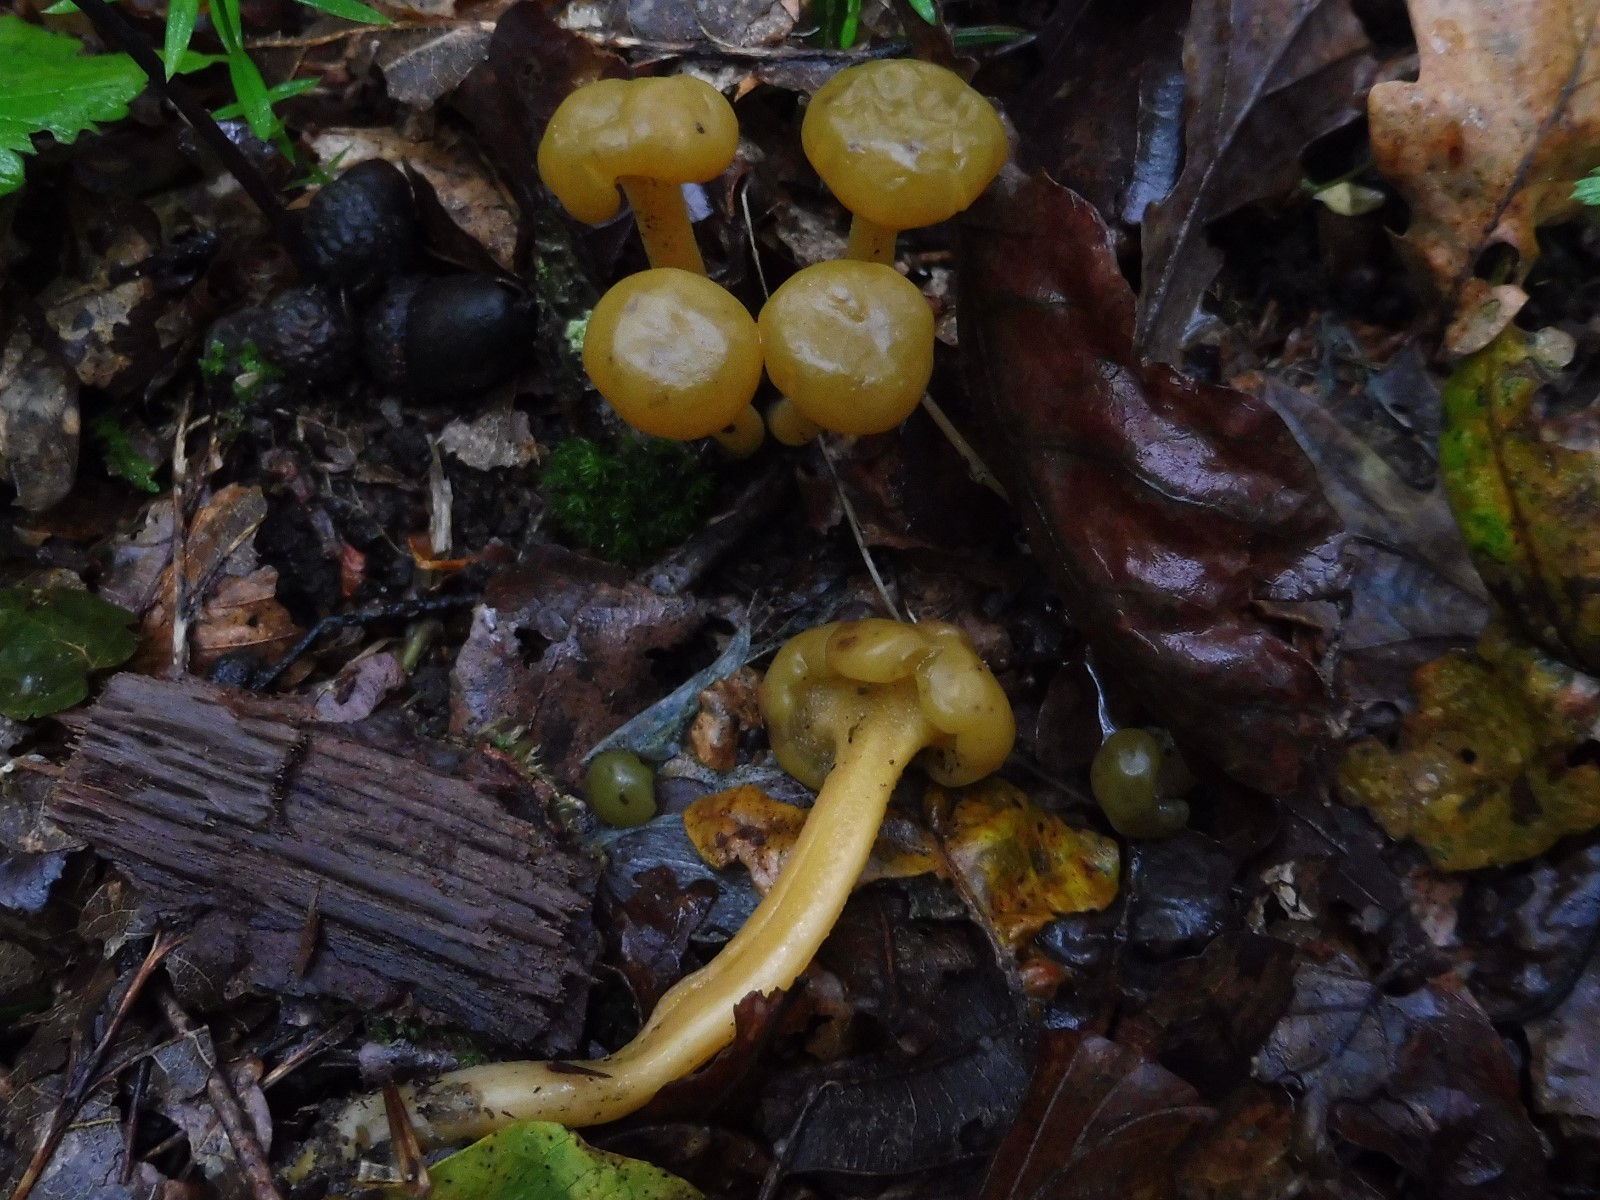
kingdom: Fungi
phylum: Ascomycota
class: Leotiomycetes
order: Leotiales
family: Leotiaceae
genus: Leotia
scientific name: Leotia lubrica
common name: ravsvamp
